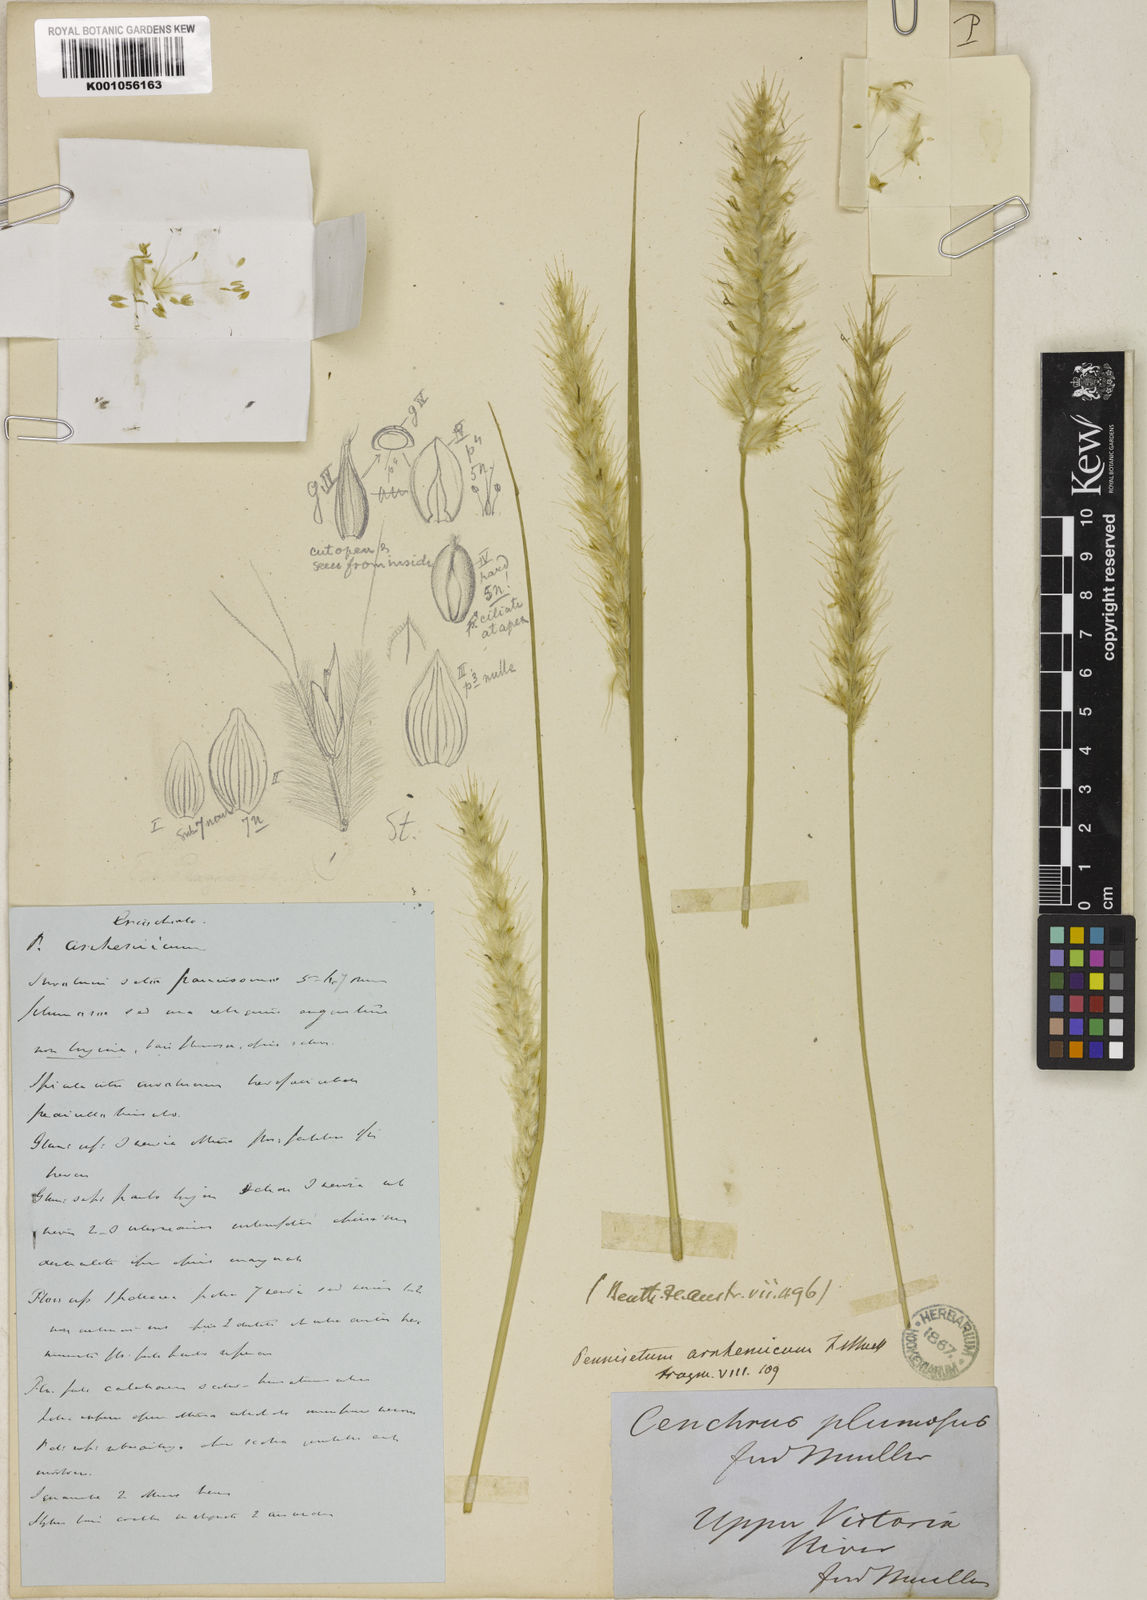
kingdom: Plantae
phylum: Tracheophyta
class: Liliopsida
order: Poales
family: Poaceae
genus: Cenchrus
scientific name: Cenchrus arnhemicus
